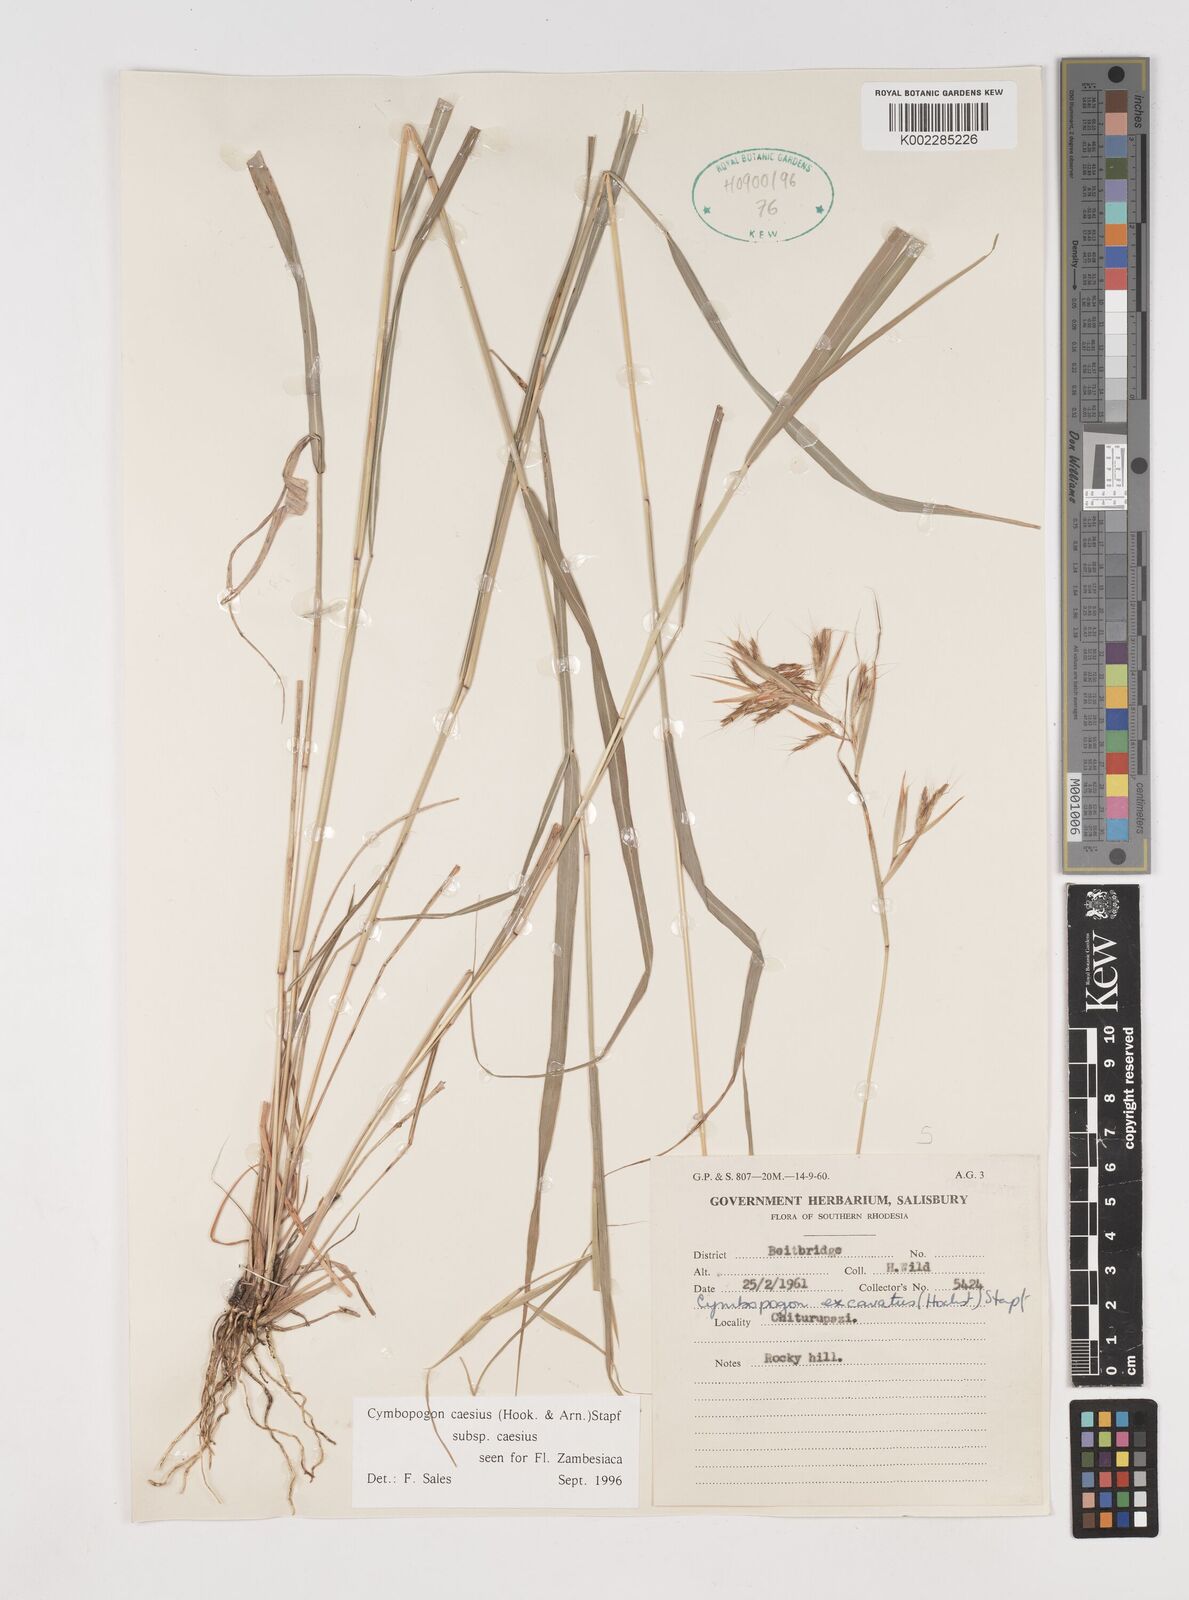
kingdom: Plantae
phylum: Tracheophyta
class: Liliopsida
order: Poales
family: Poaceae
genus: Cymbopogon
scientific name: Cymbopogon caesius
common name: Kachi grass
